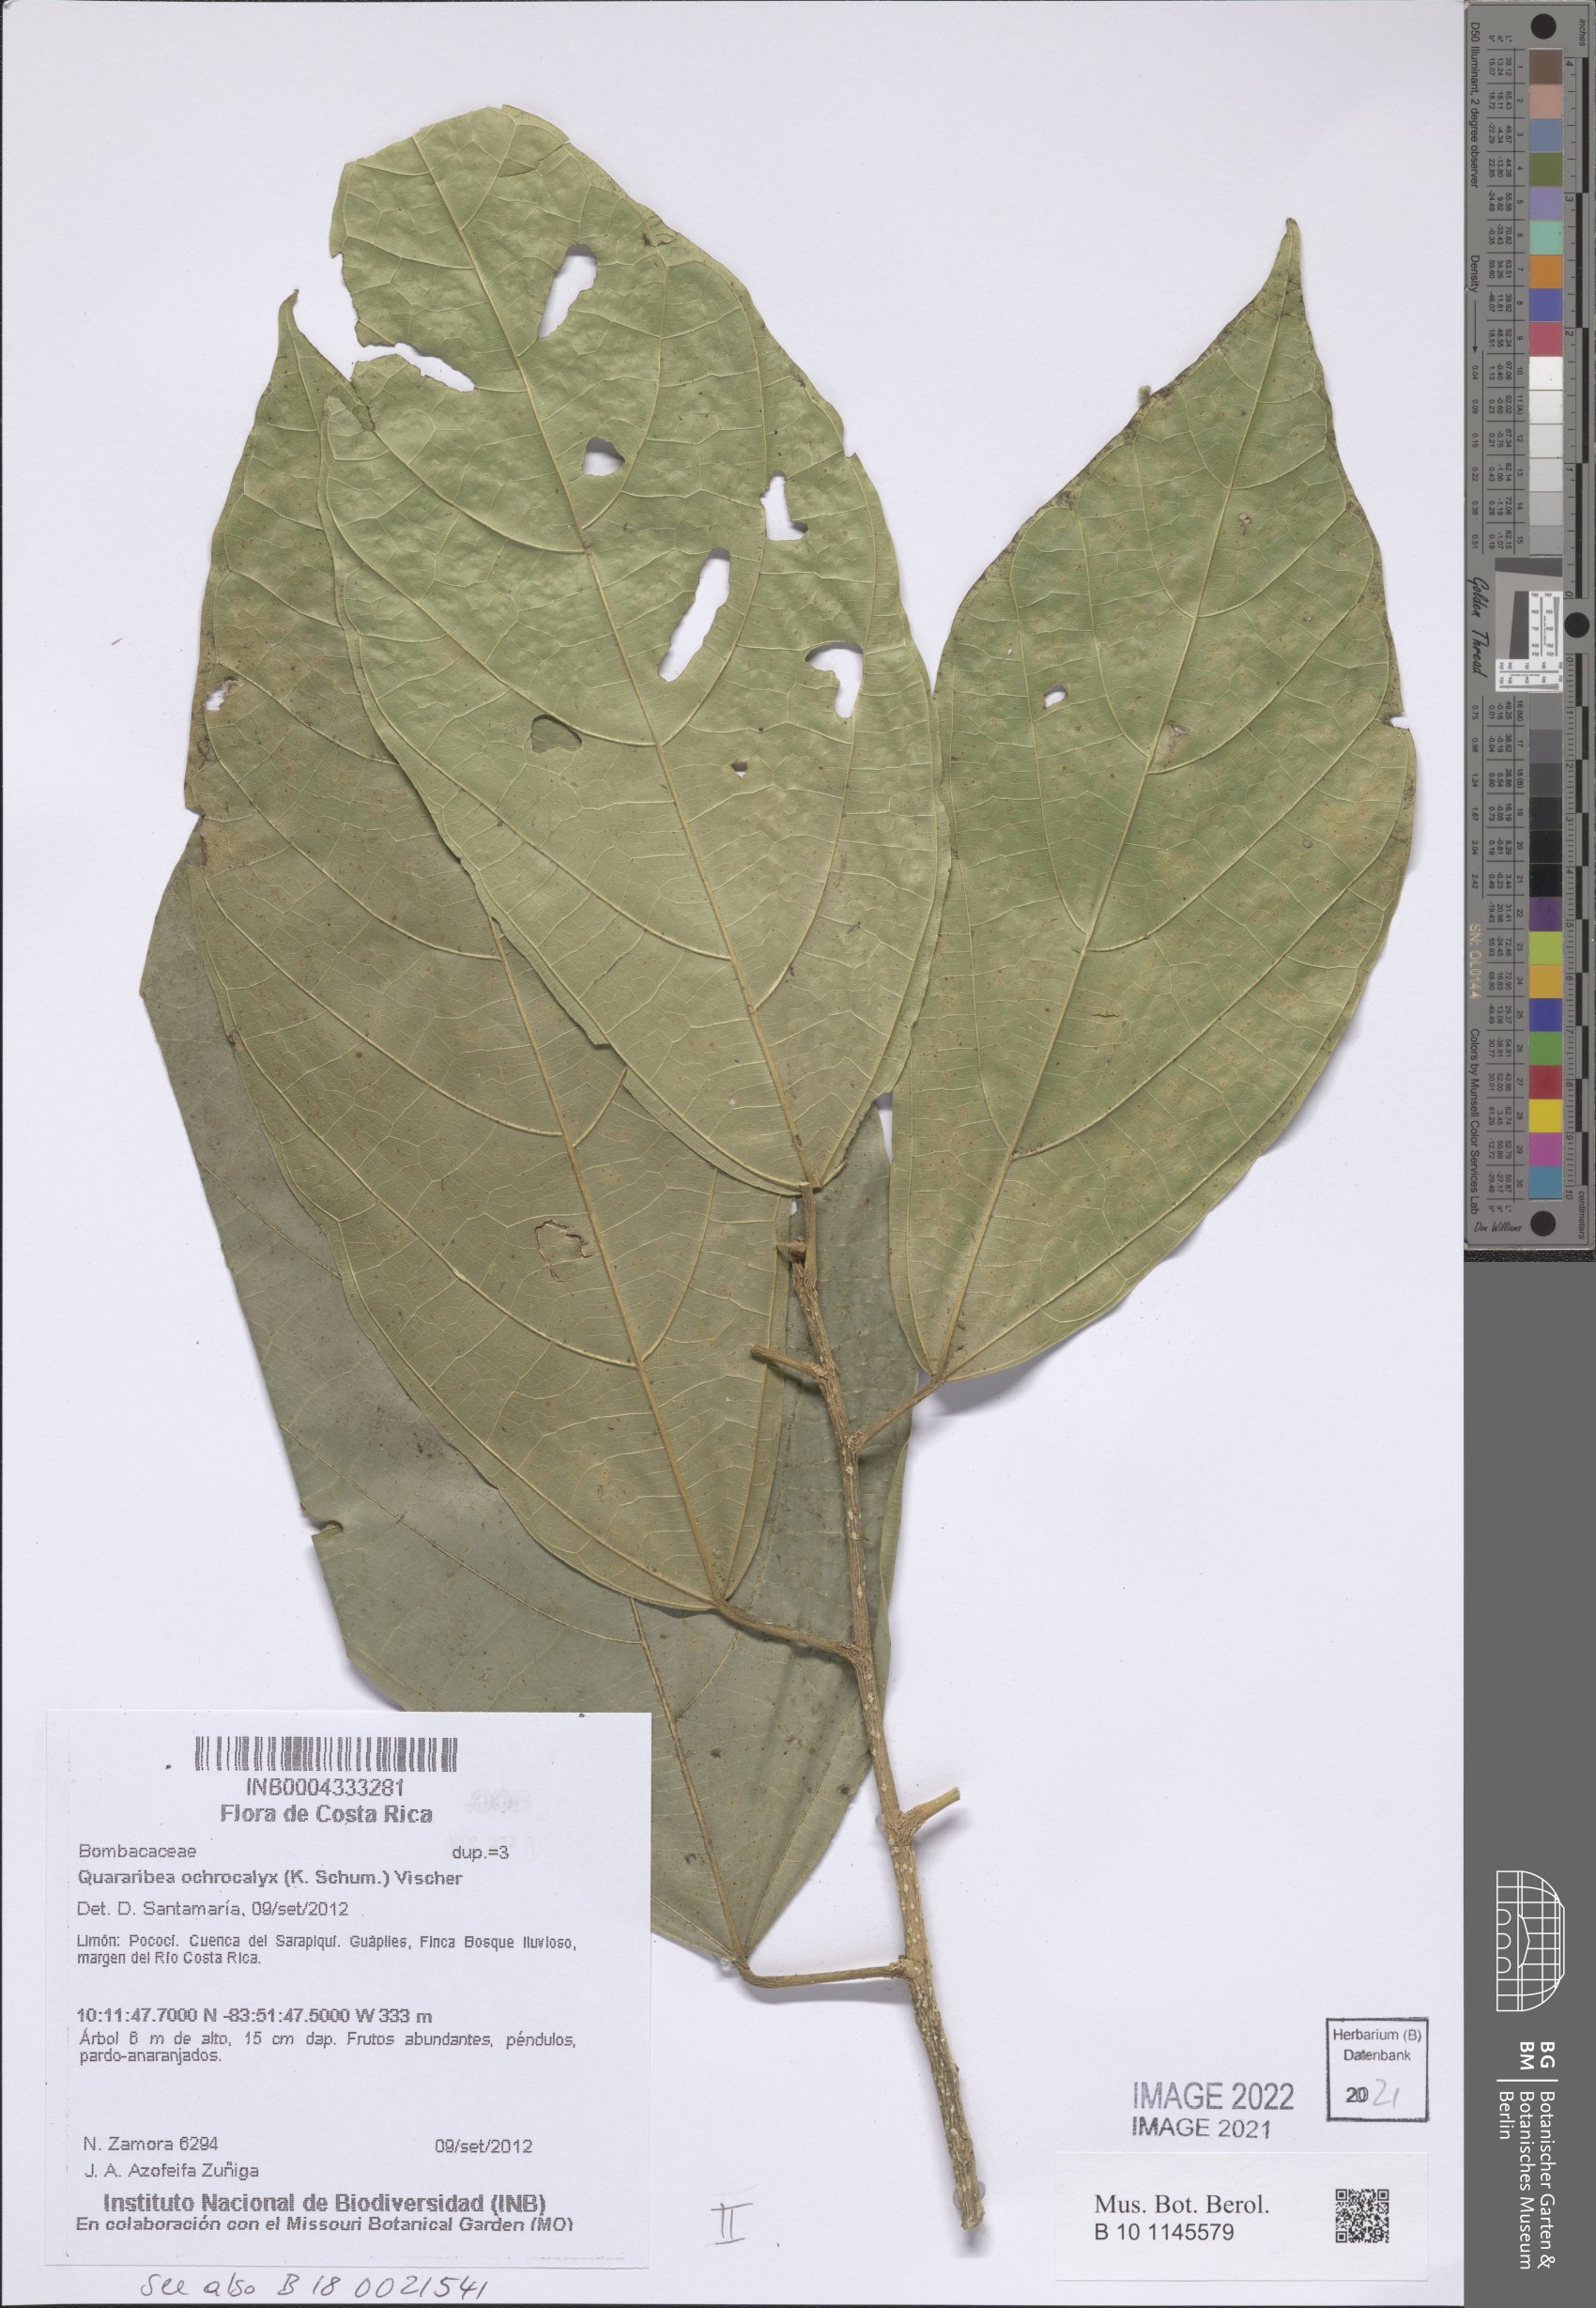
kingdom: Plantae
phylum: Tracheophyta
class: Magnoliopsida
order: Malvales
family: Malvaceae
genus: Matisia
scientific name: Matisia ochrocalyx
